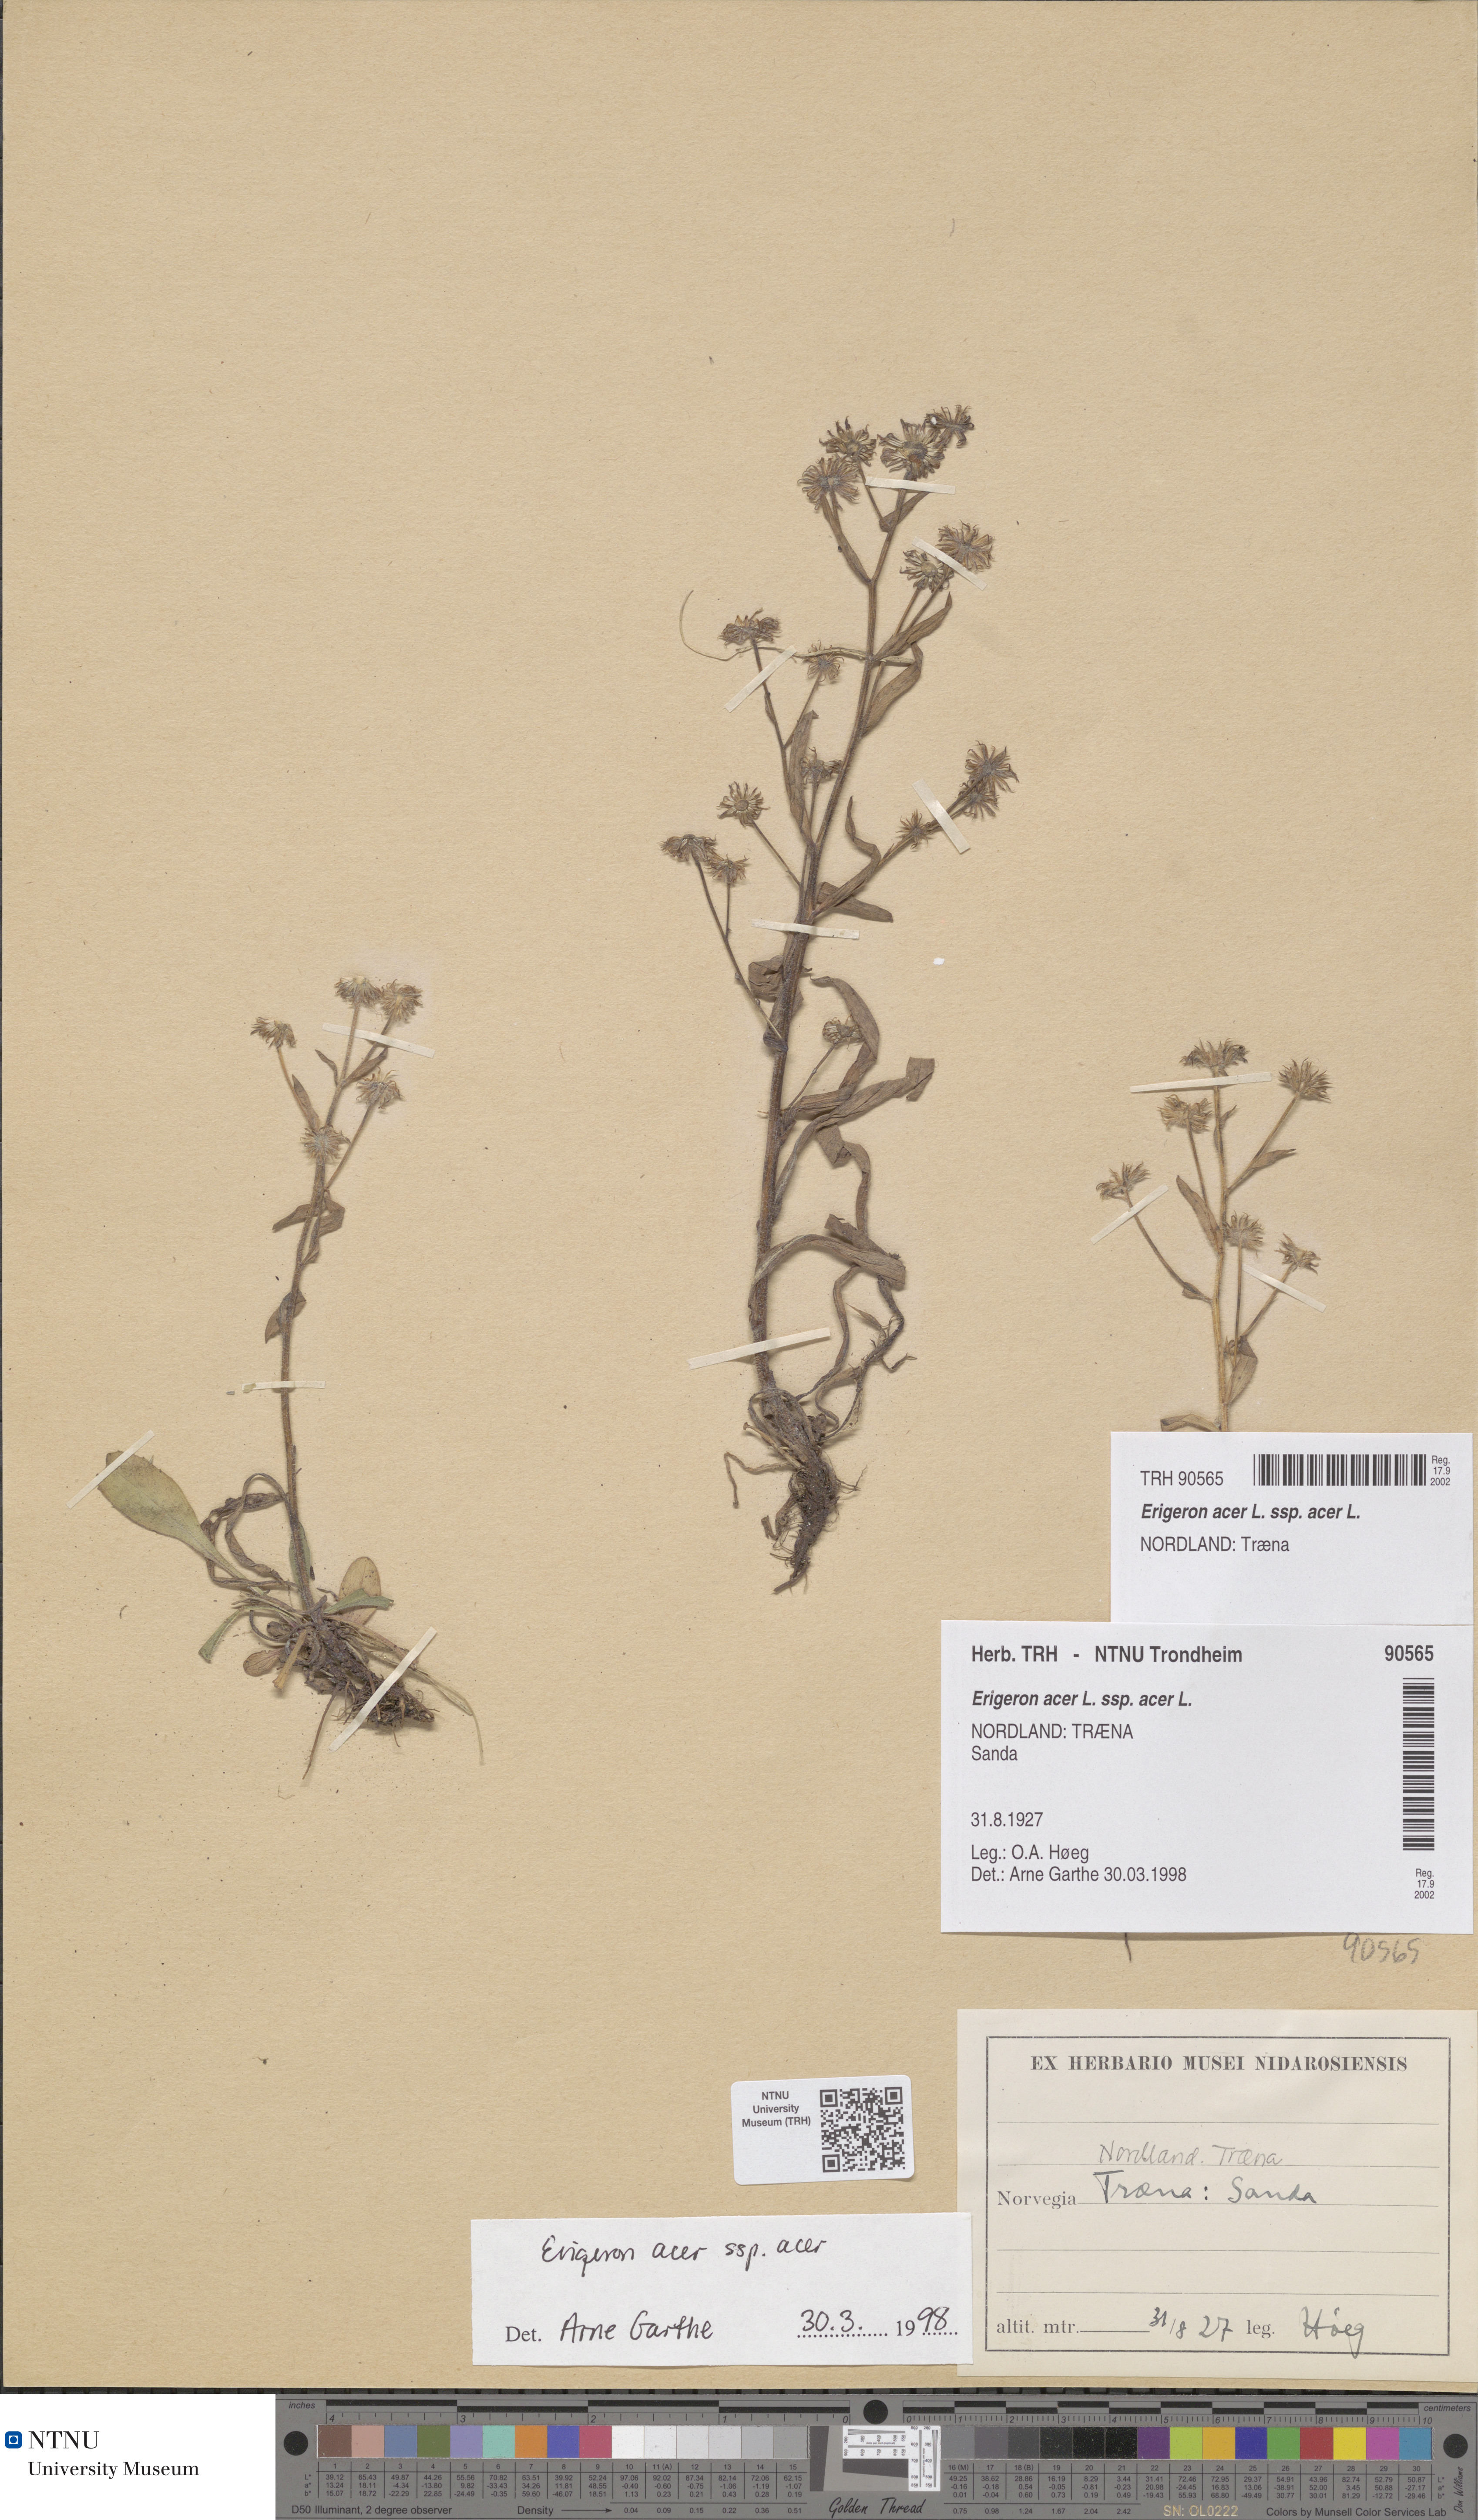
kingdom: Plantae
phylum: Tracheophyta
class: Magnoliopsida
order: Asterales
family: Asteraceae
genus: Erigeron
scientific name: Erigeron acris
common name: Blue fleabane
